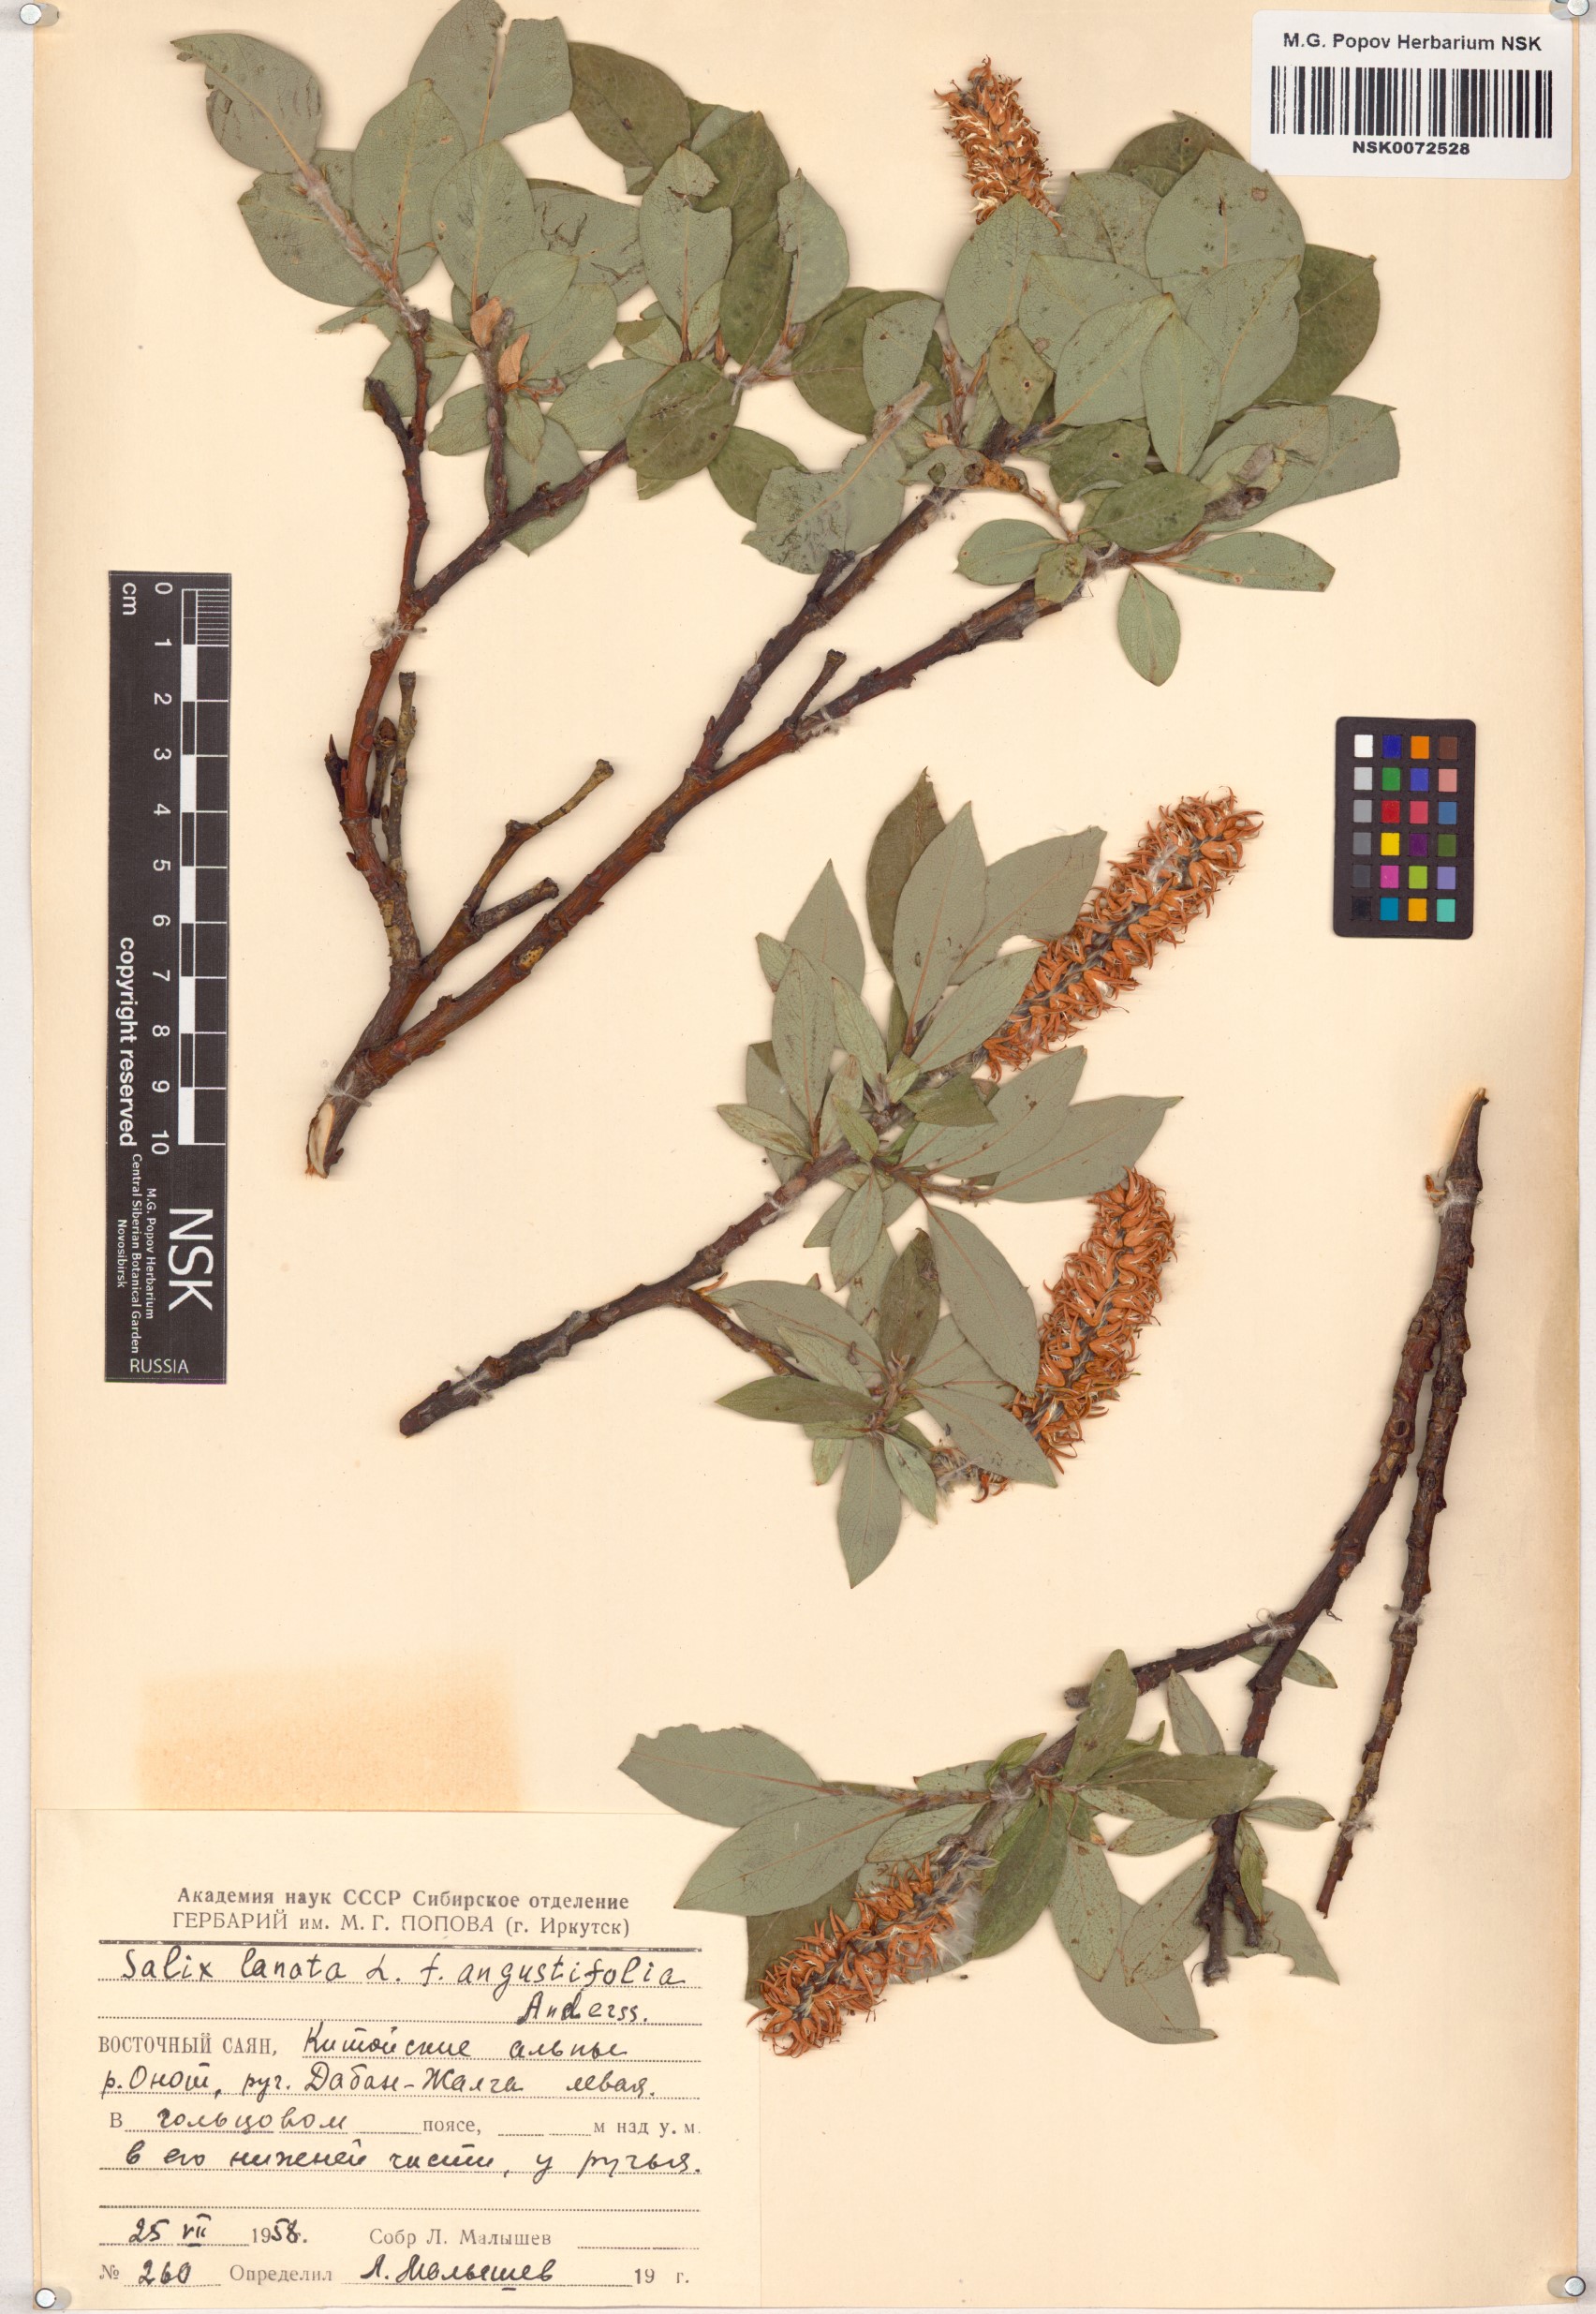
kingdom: Plantae
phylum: Tracheophyta
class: Magnoliopsida
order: Malpighiales
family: Salicaceae
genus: Salix
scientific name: Salix lanata
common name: Woolly willow
